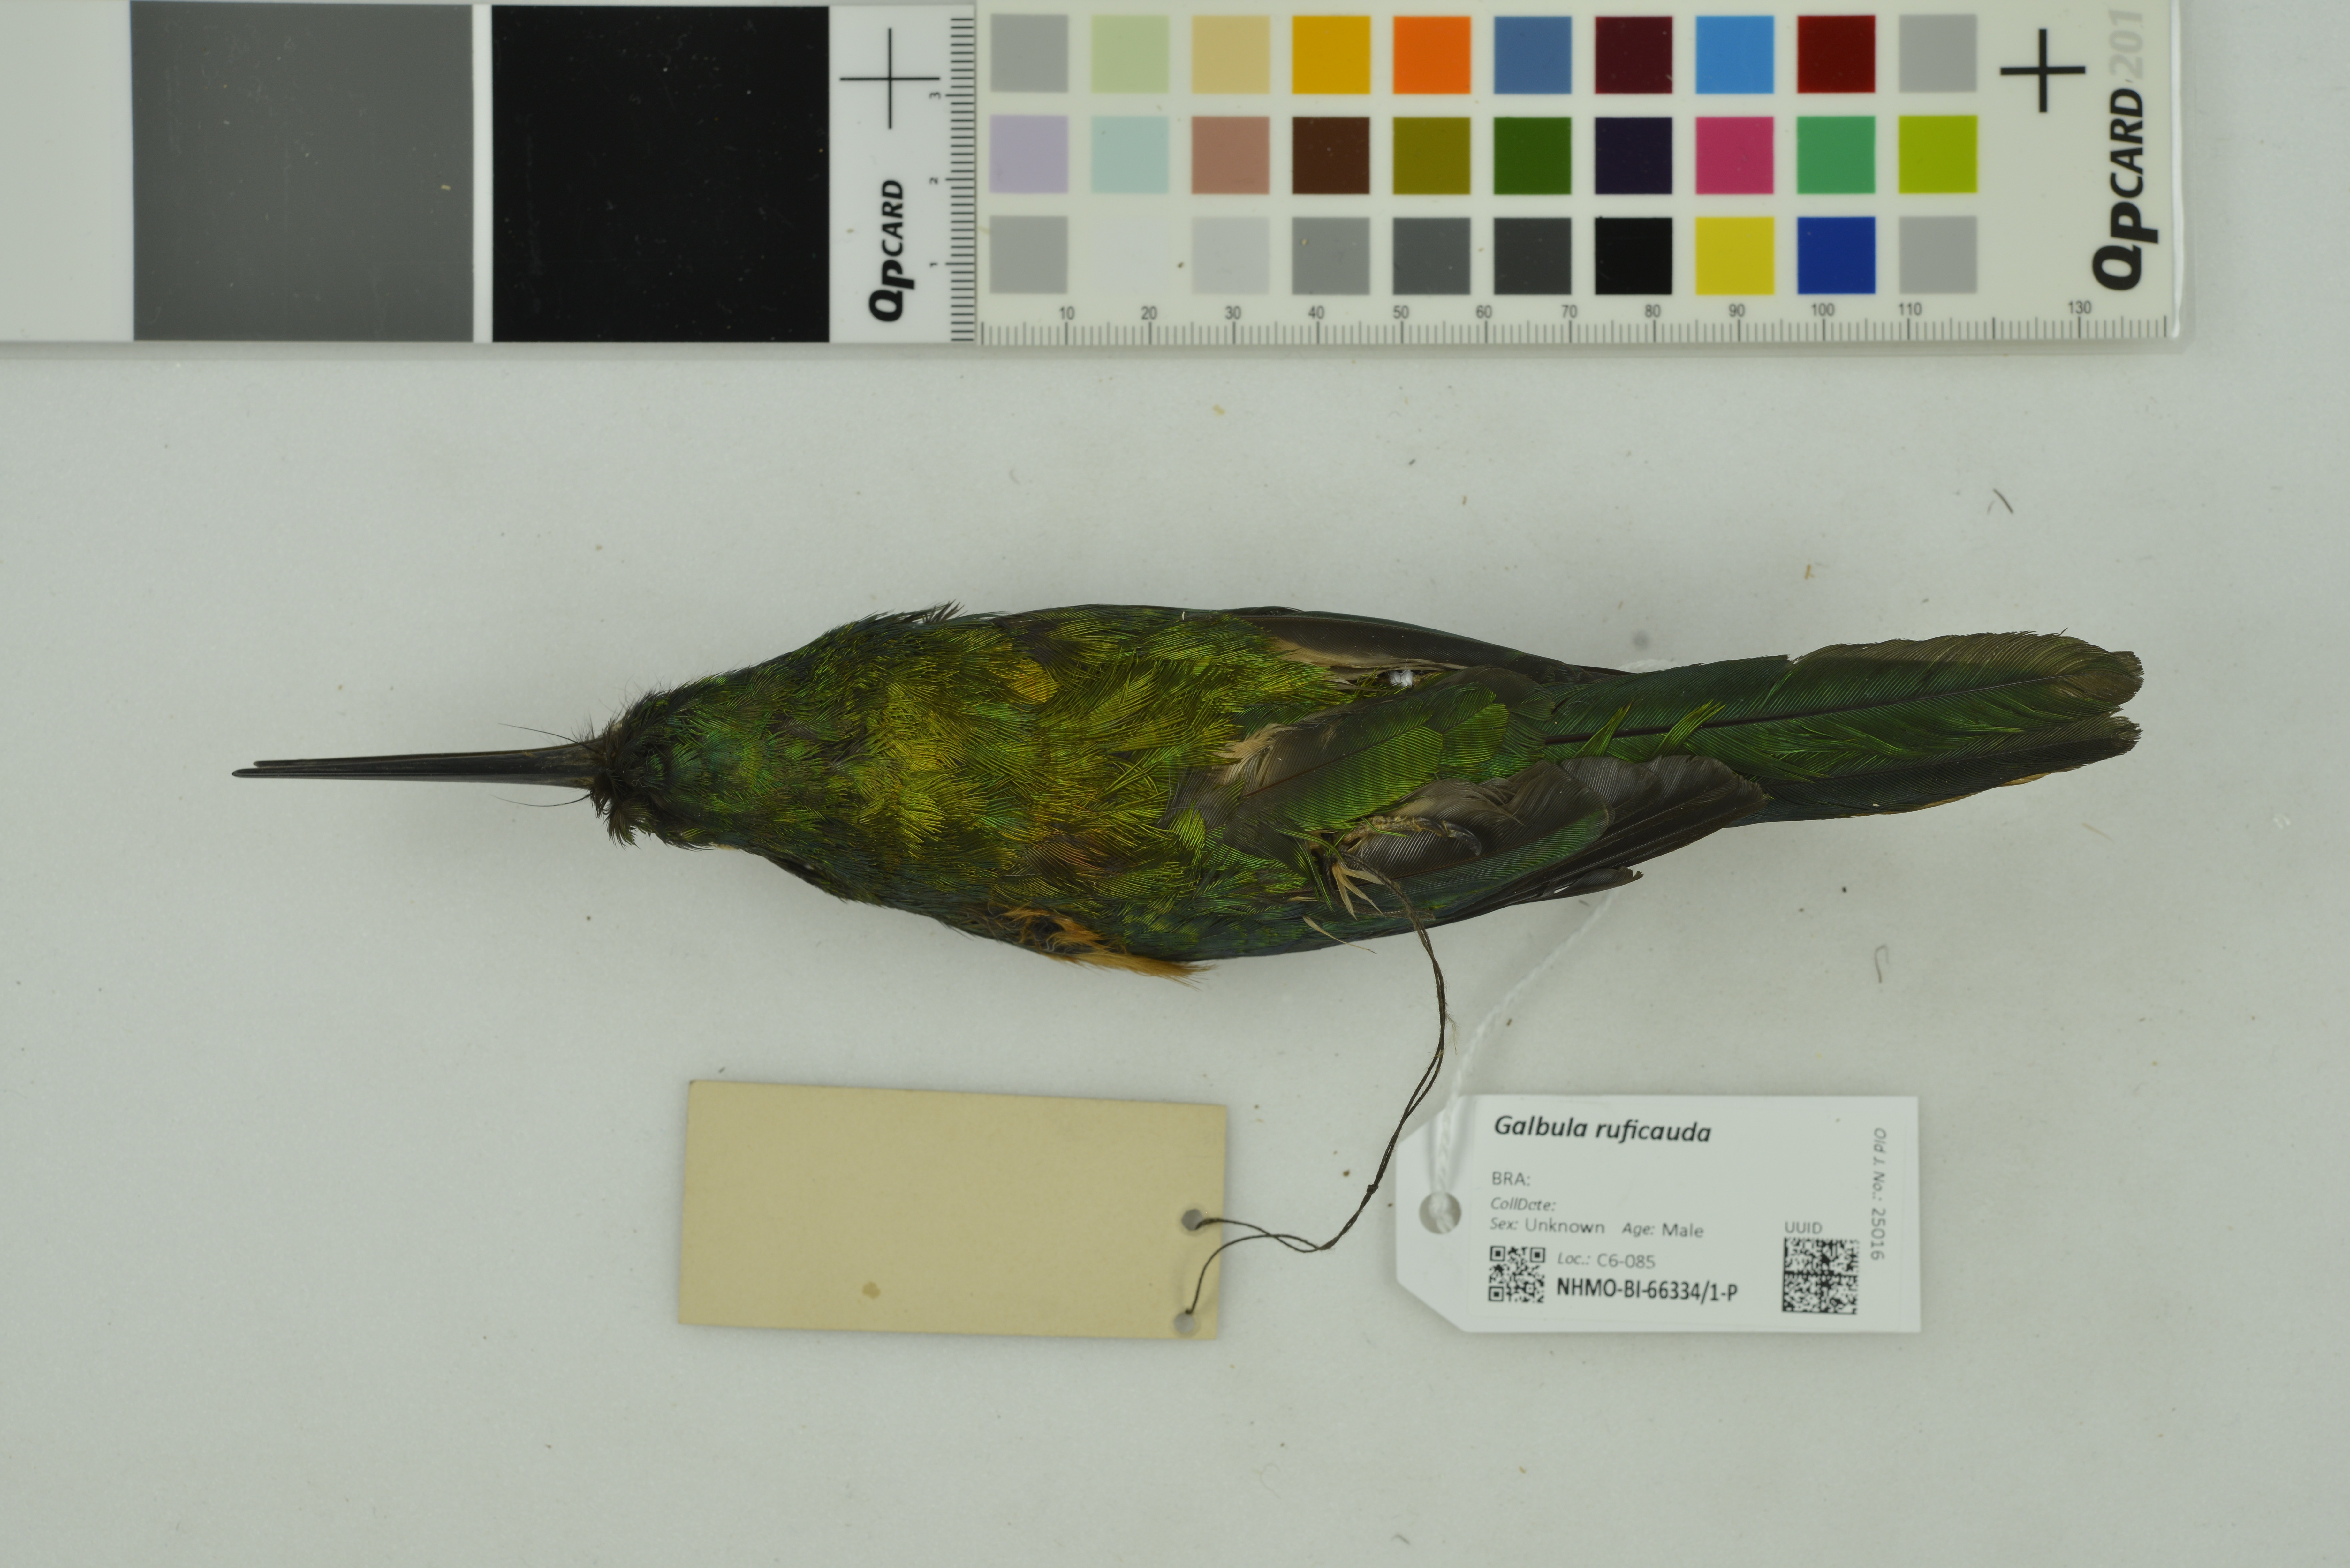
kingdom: Animalia
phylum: Chordata
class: Aves
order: Piciformes
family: Galbulidae
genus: Galbula
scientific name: Galbula ruficauda
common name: Rufous-tailed jacamar
